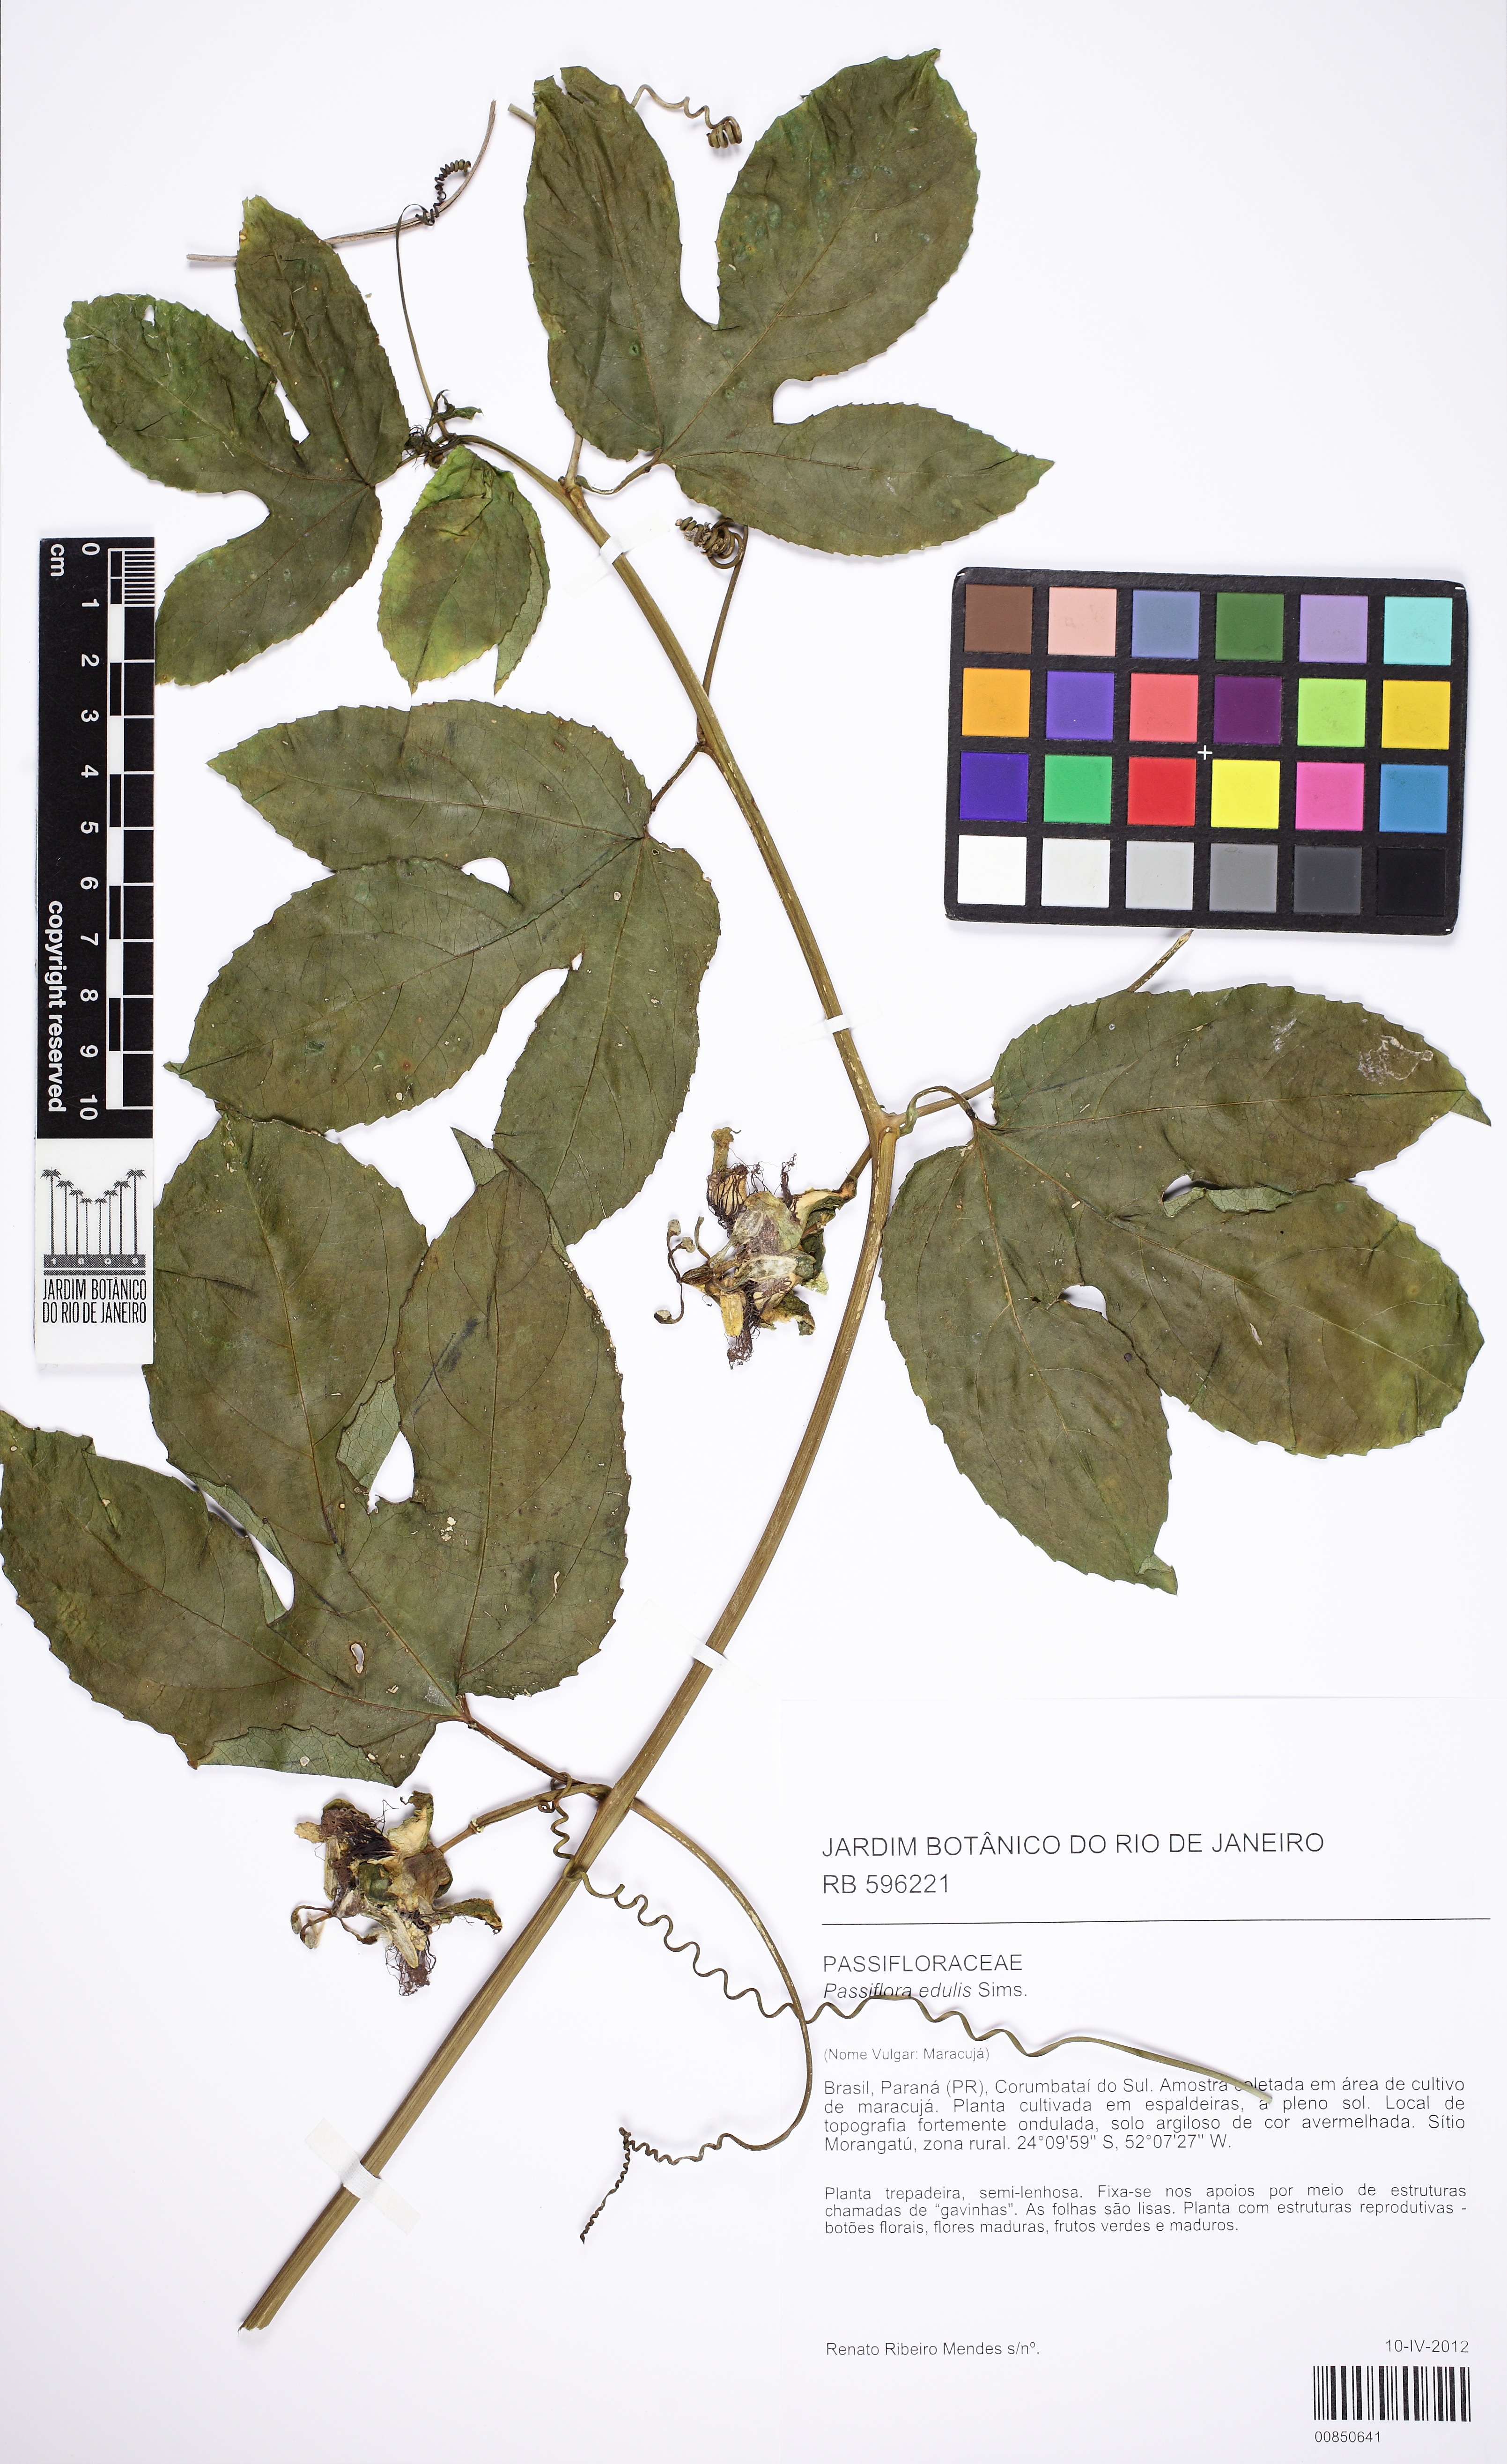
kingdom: Plantae
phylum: Tracheophyta
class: Magnoliopsida
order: Malpighiales
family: Passifloraceae
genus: Passiflora
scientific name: Passiflora edulis
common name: Purple granadilla
